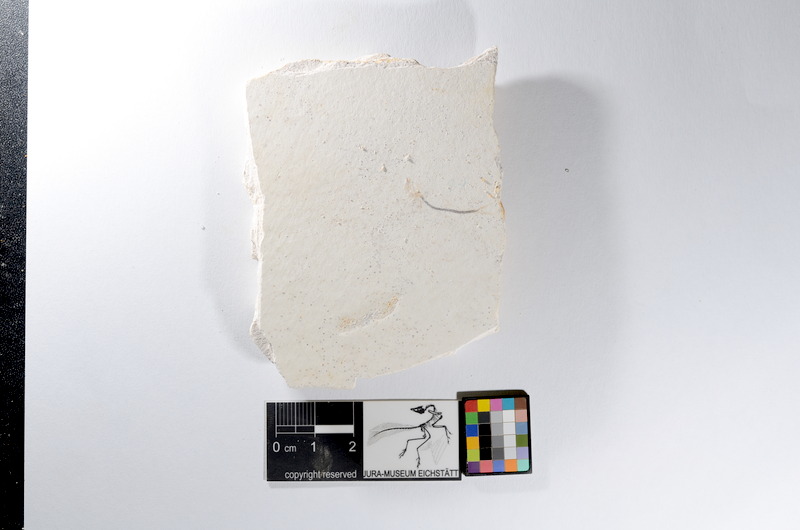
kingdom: Animalia
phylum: Chordata
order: Salmoniformes
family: Orthogonikleithridae
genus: Orthogonikleithrus
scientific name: Orthogonikleithrus hoelli
